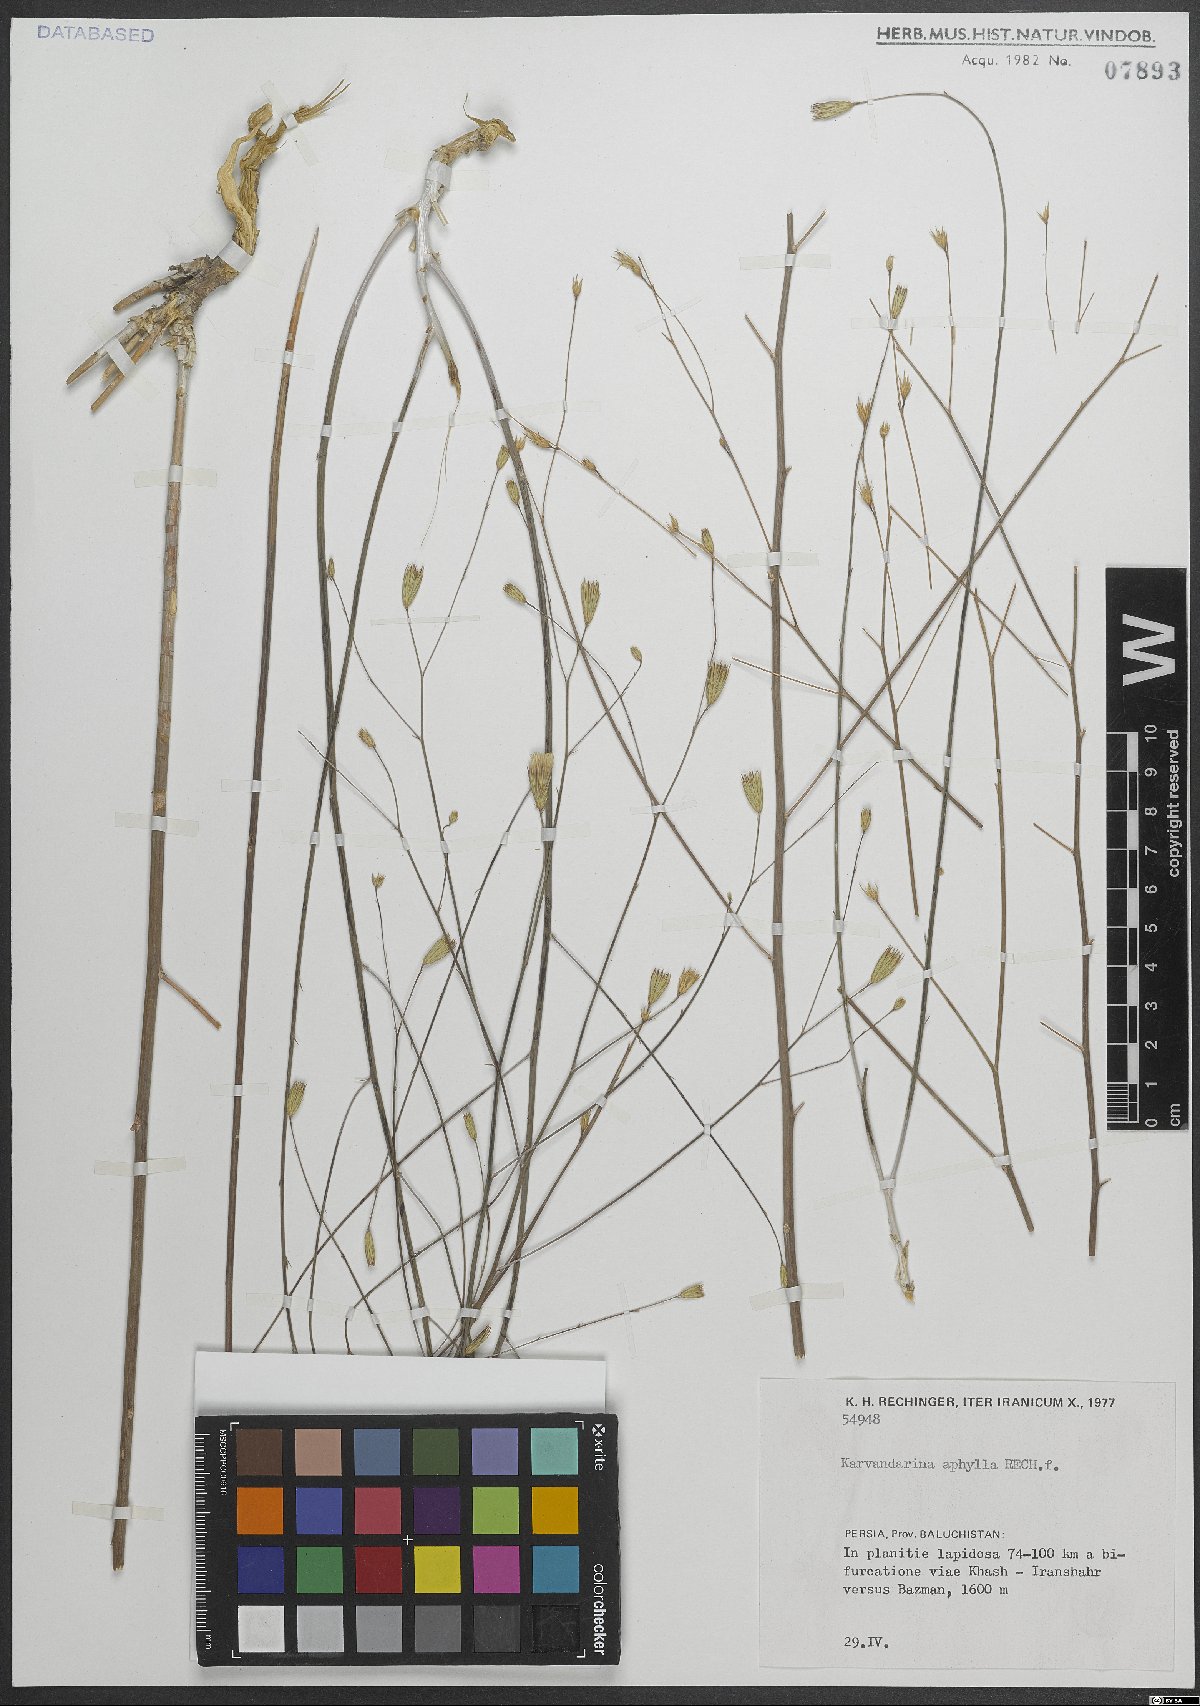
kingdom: Plantae
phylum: Tracheophyta
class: Magnoliopsida
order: Asterales
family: Asteraceae
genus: Karvandarina
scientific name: Karvandarina aphylla
